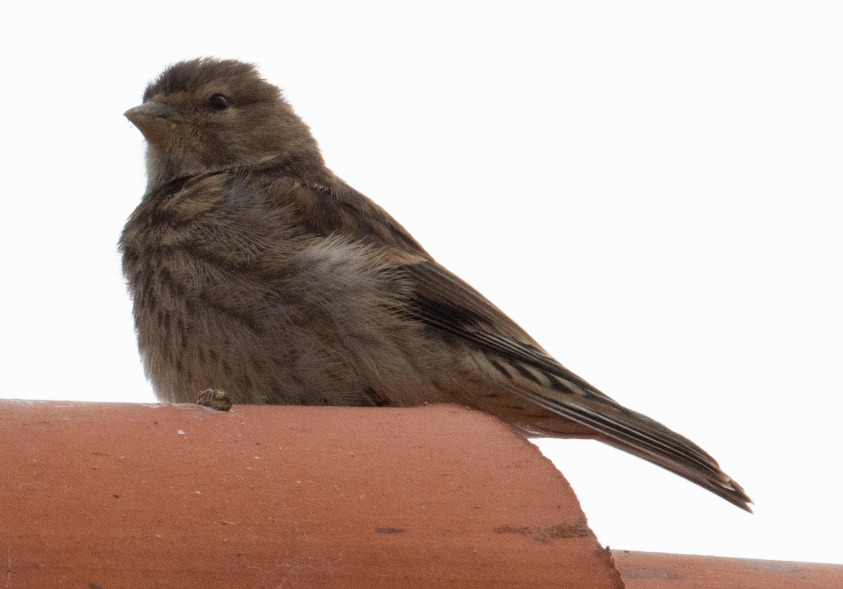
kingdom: Animalia
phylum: Chordata
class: Aves
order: Passeriformes
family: Fringillidae
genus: Linaria
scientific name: Linaria cannabina
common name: Tornirisk
